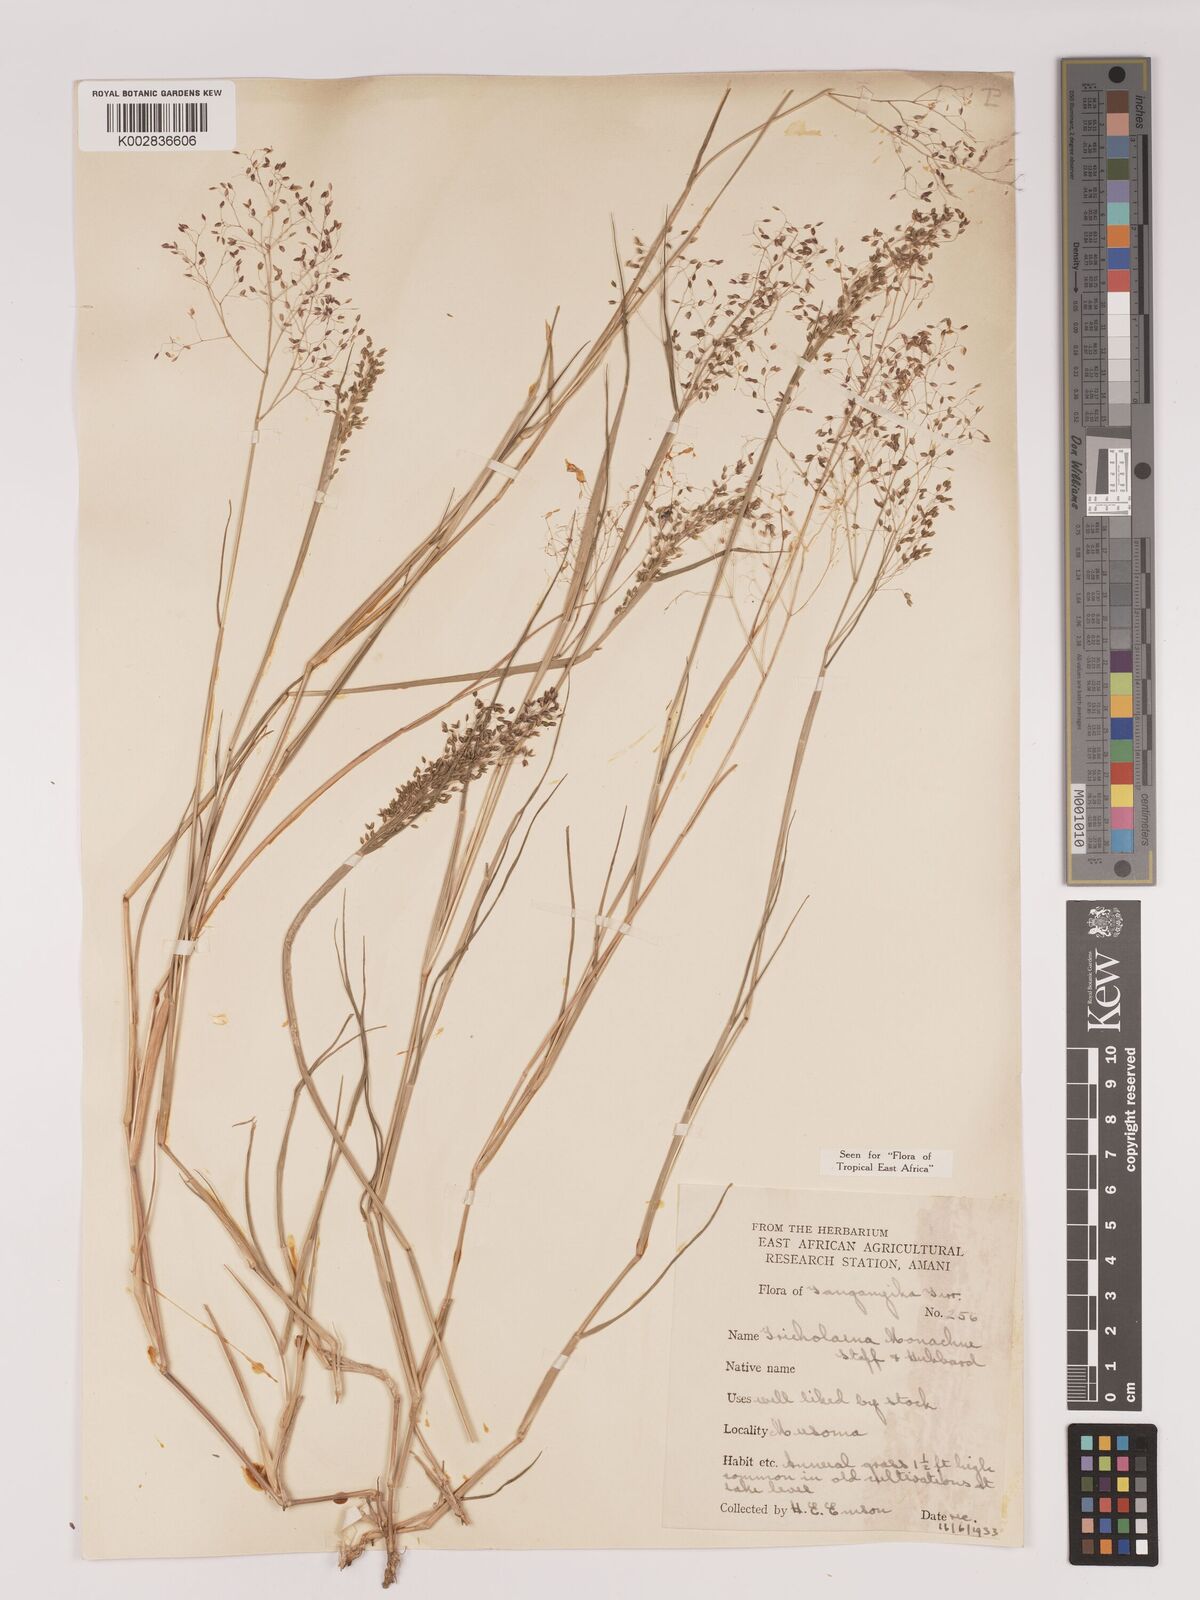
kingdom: Plantae
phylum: Tracheophyta
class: Liliopsida
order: Poales
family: Poaceae
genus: Tricholaena
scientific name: Tricholaena monachne
